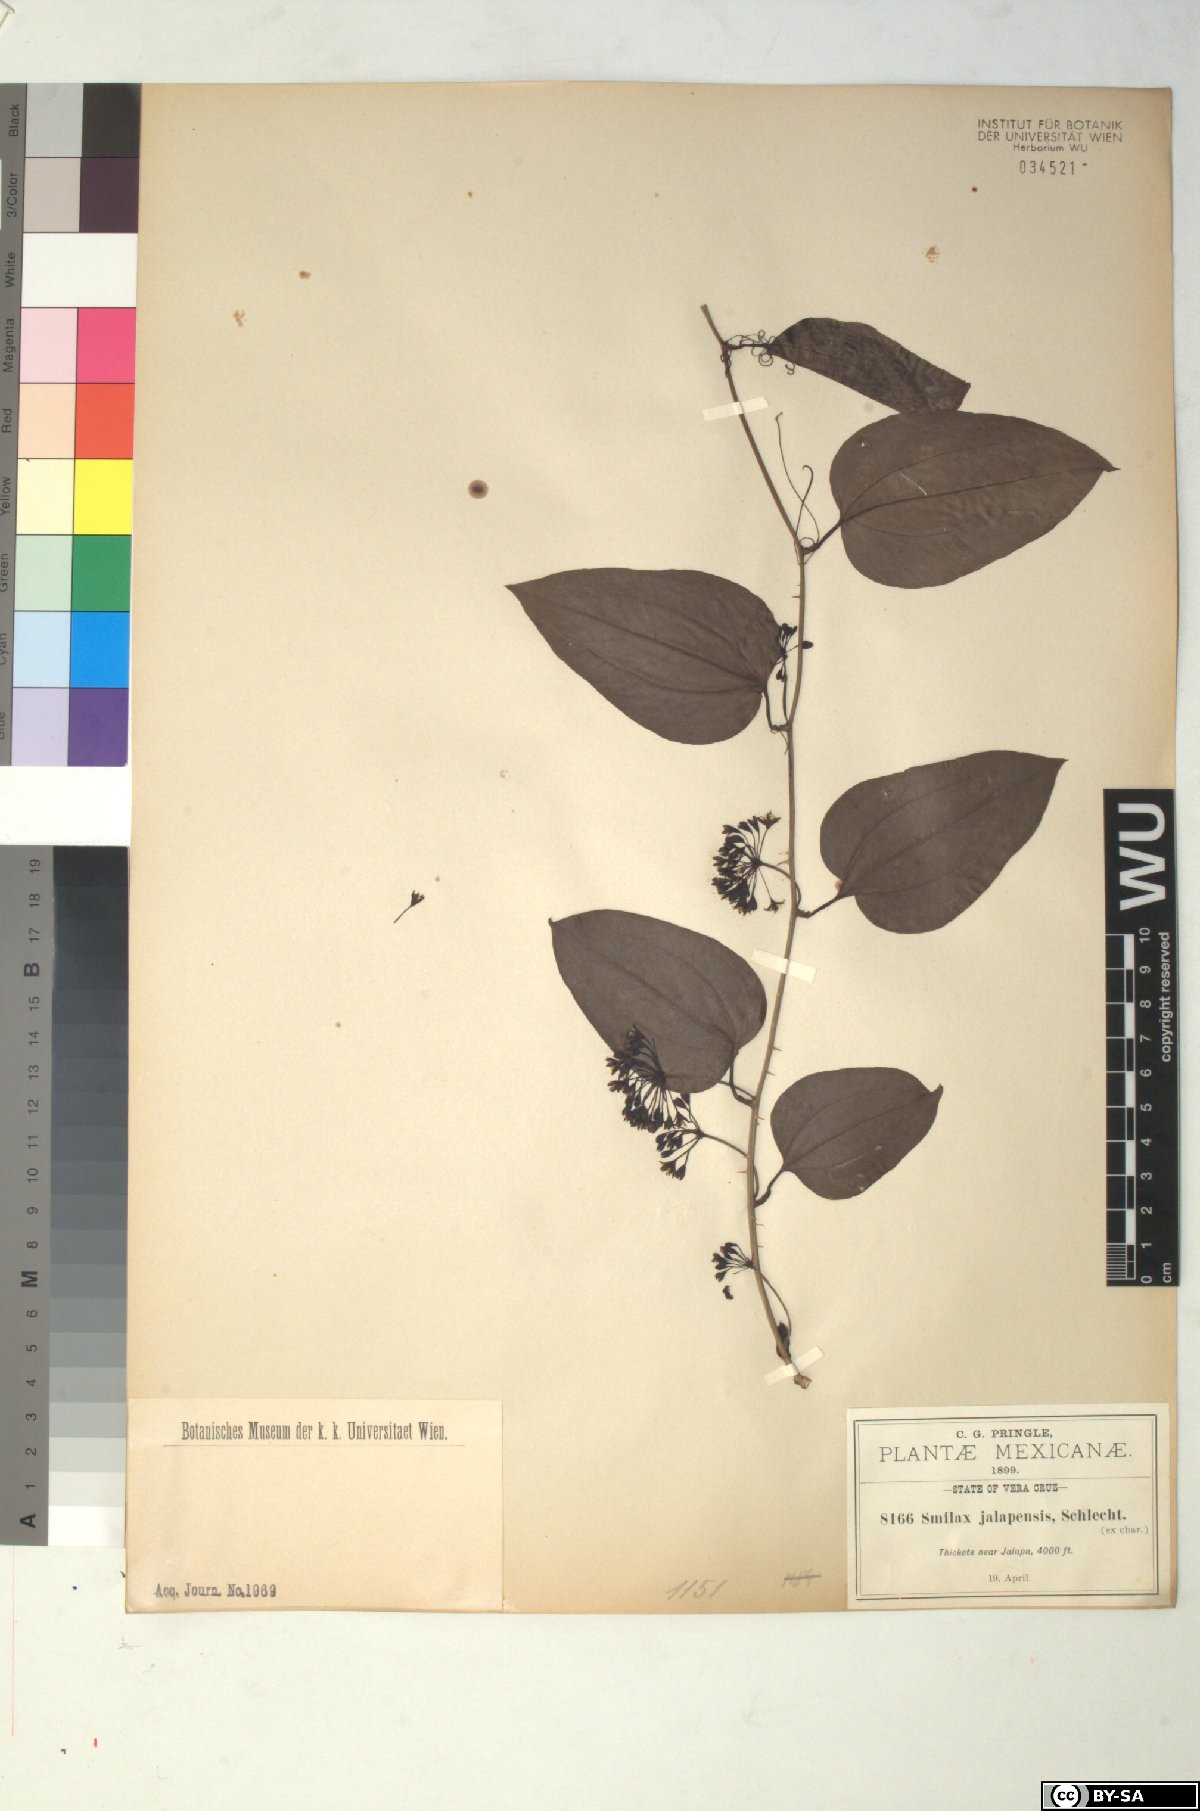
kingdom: Plantae
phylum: Tracheophyta
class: Liliopsida
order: Liliales
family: Smilacaceae
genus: Smilax
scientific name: Smilax moranensis
